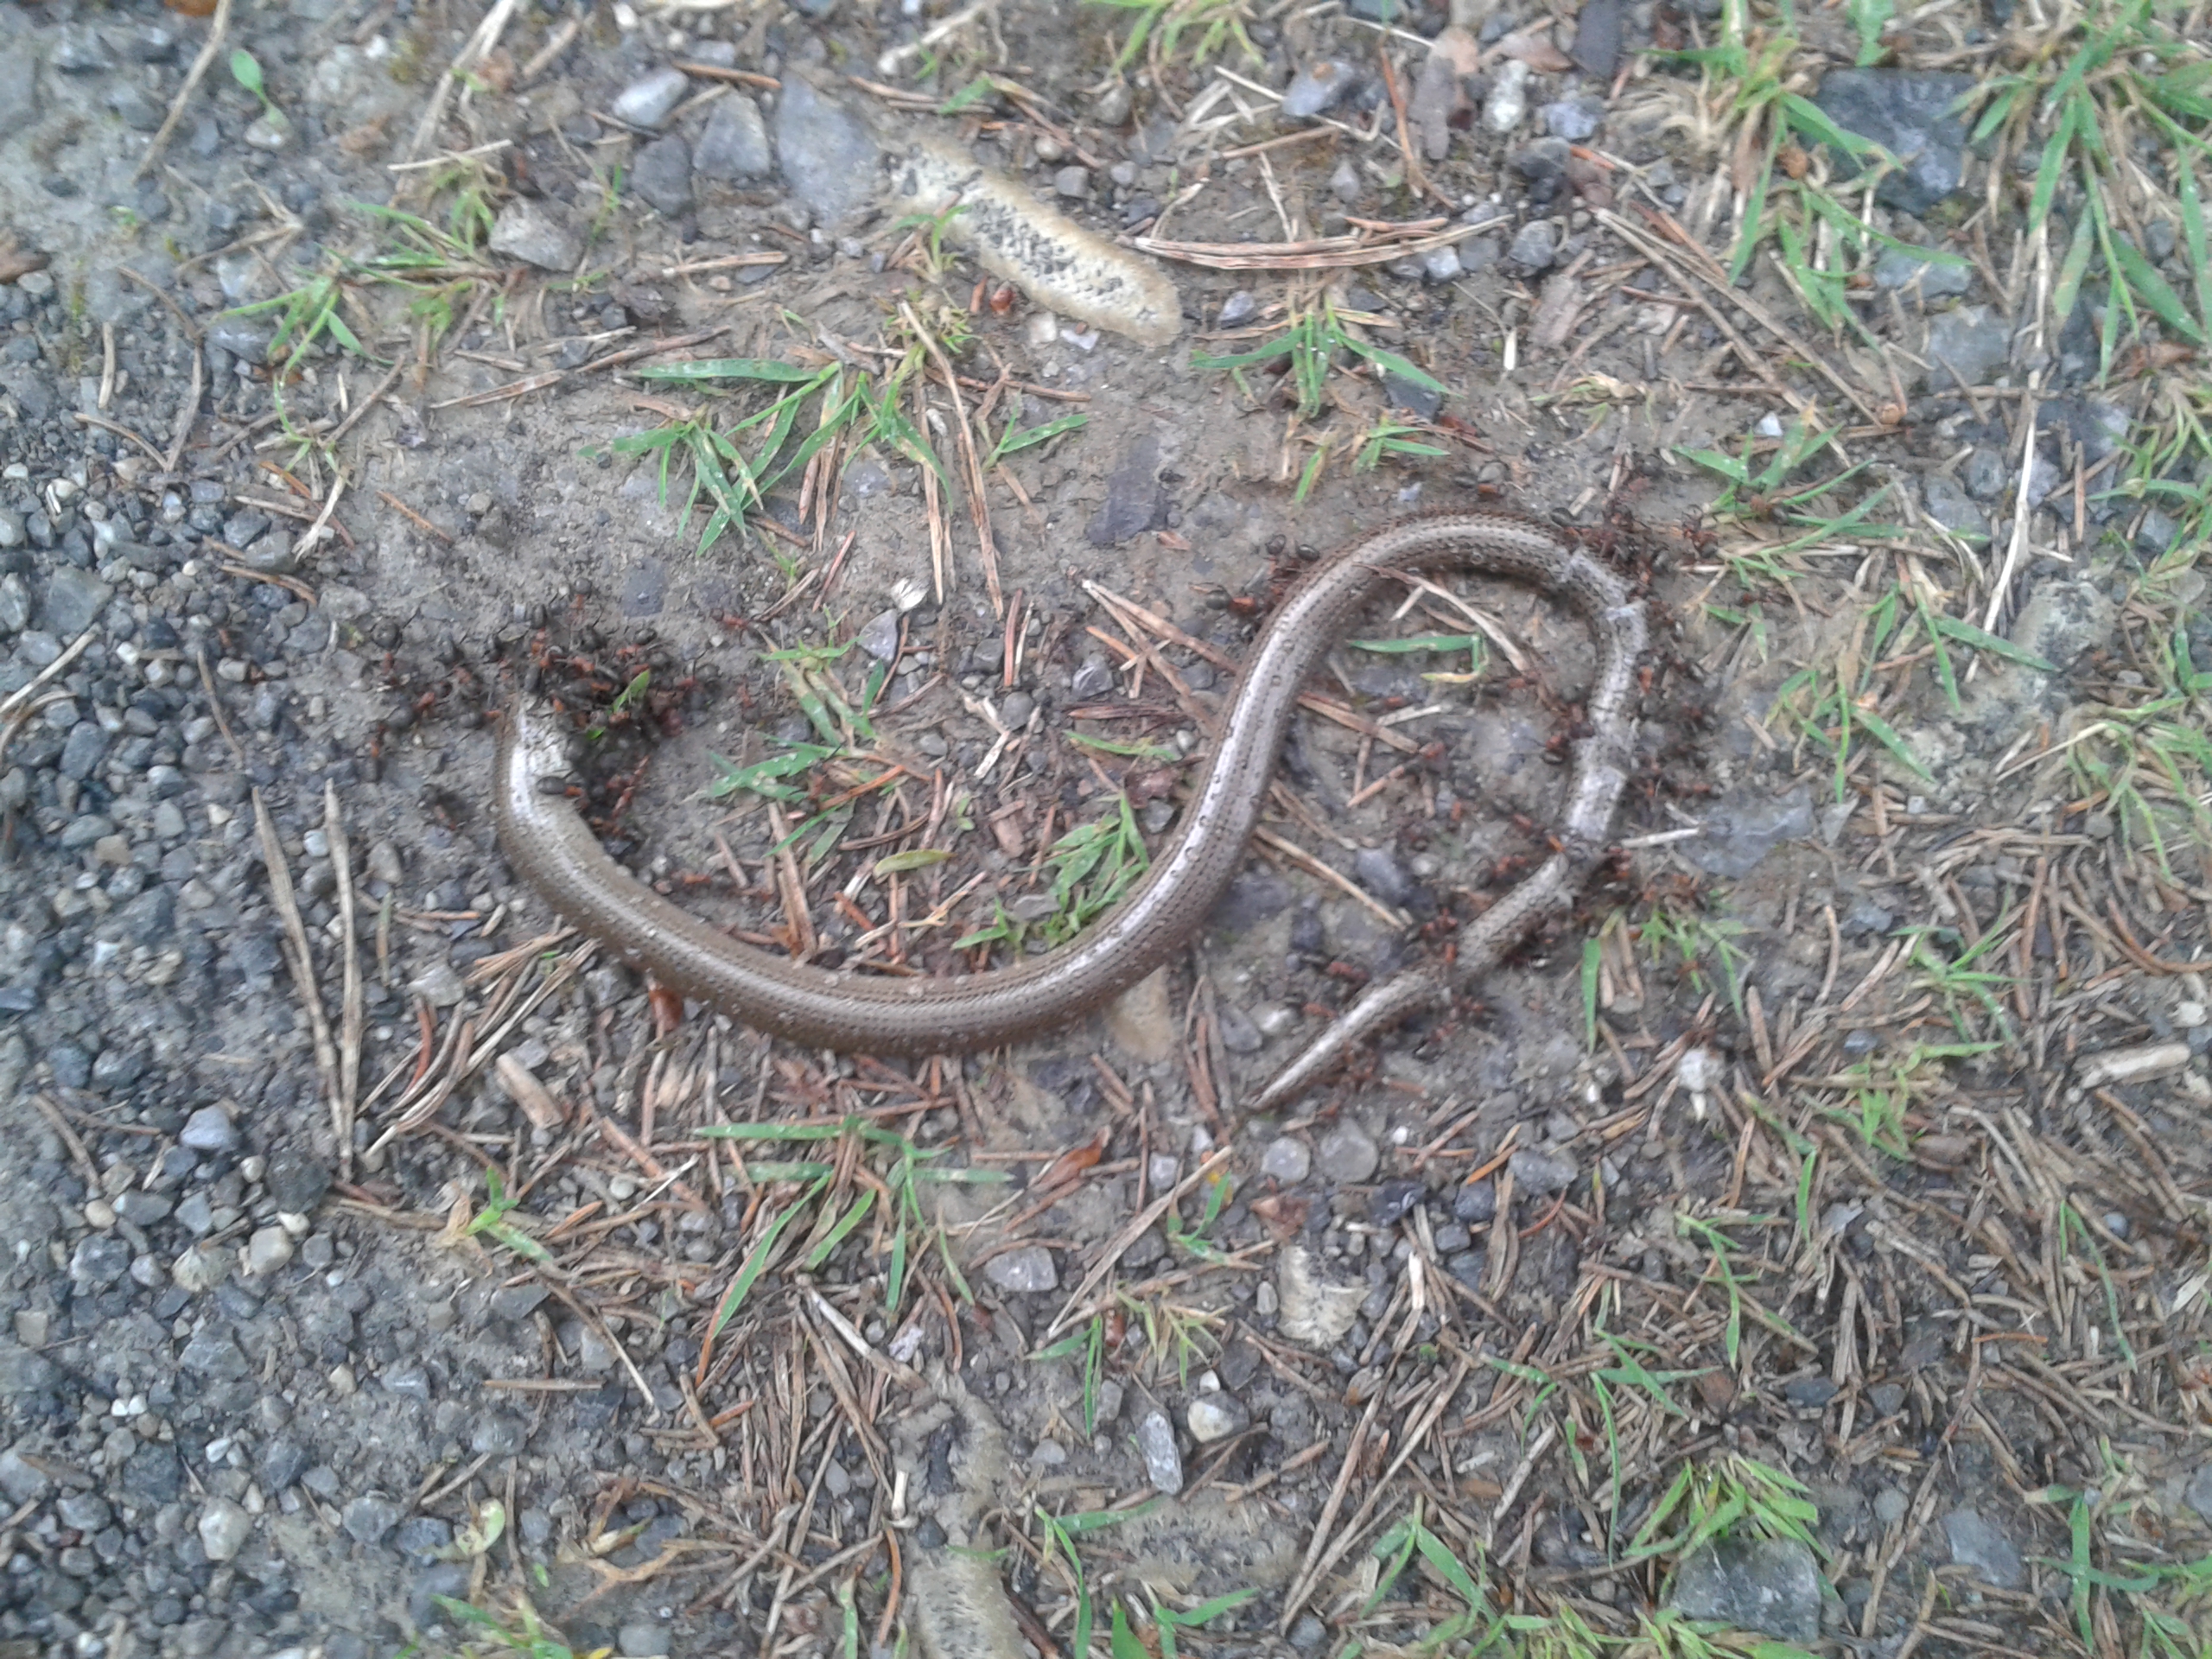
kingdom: Animalia
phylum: Chordata
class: Squamata
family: Anguidae
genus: Anguis
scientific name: Anguis fragilis
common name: Slow worm
